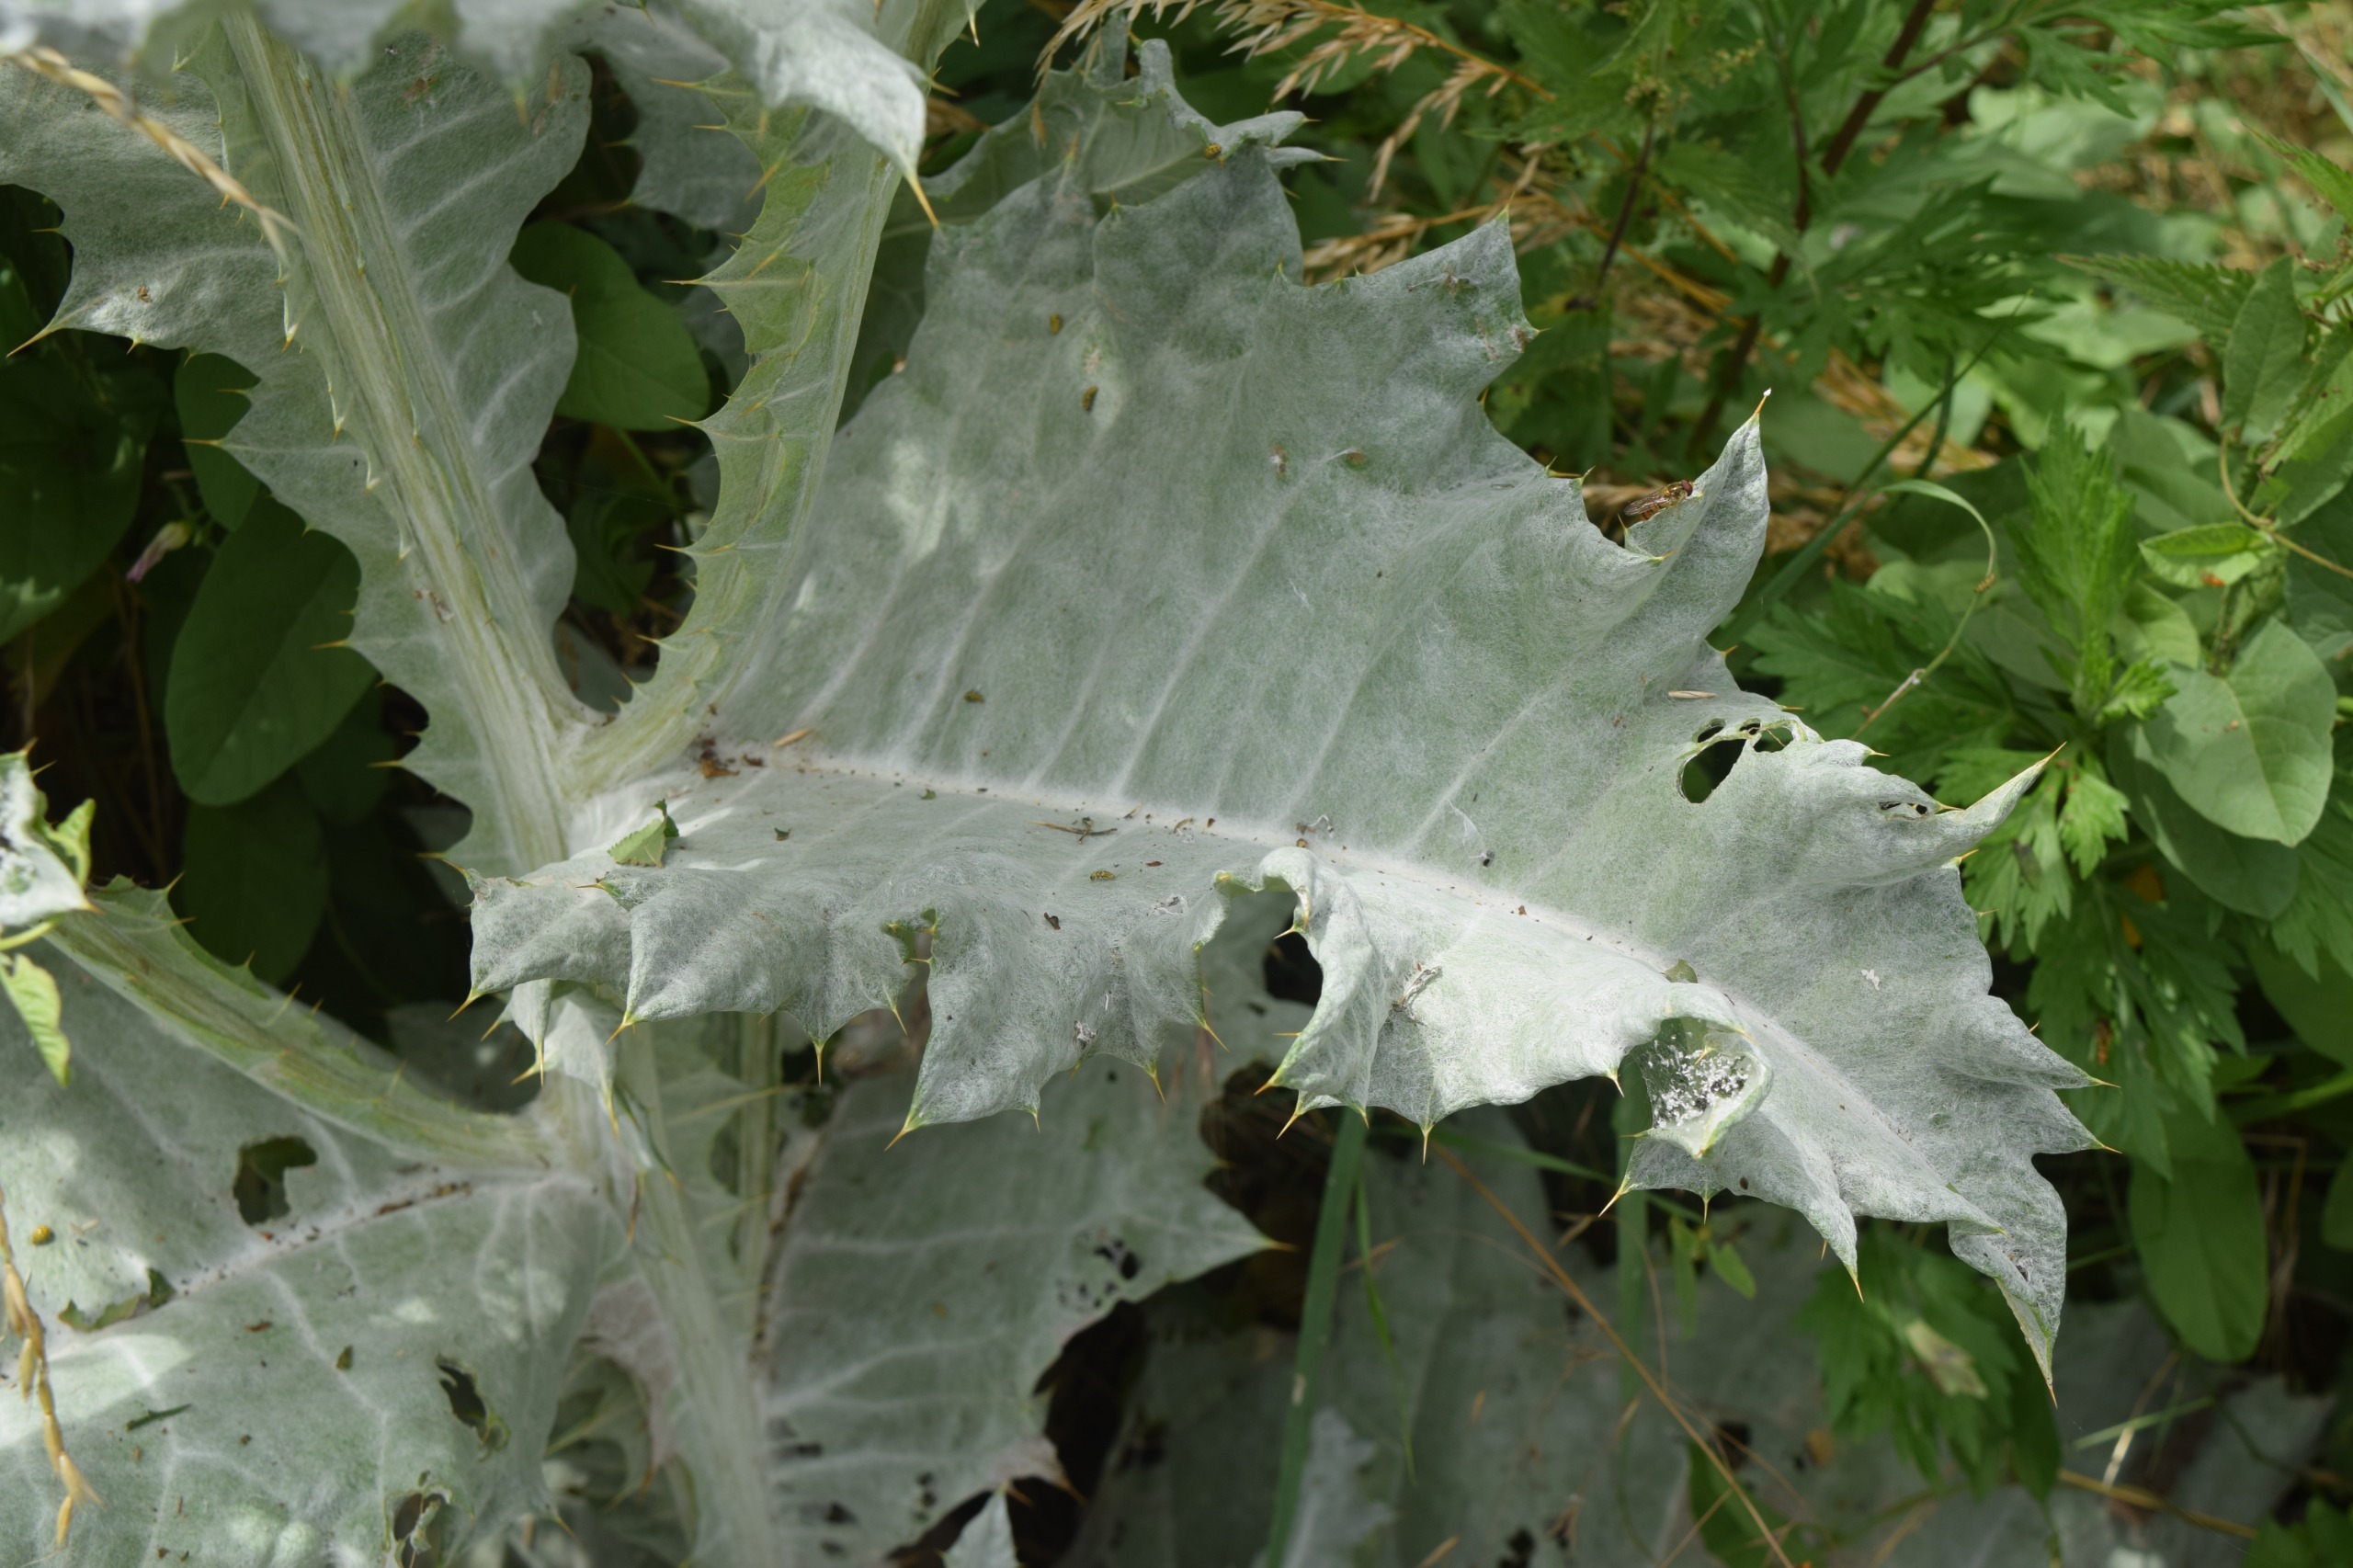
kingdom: Plantae
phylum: Tracheophyta
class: Magnoliopsida
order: Asterales
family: Asteraceae
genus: Onopordum
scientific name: Onopordum acanthium
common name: Æselfoder
